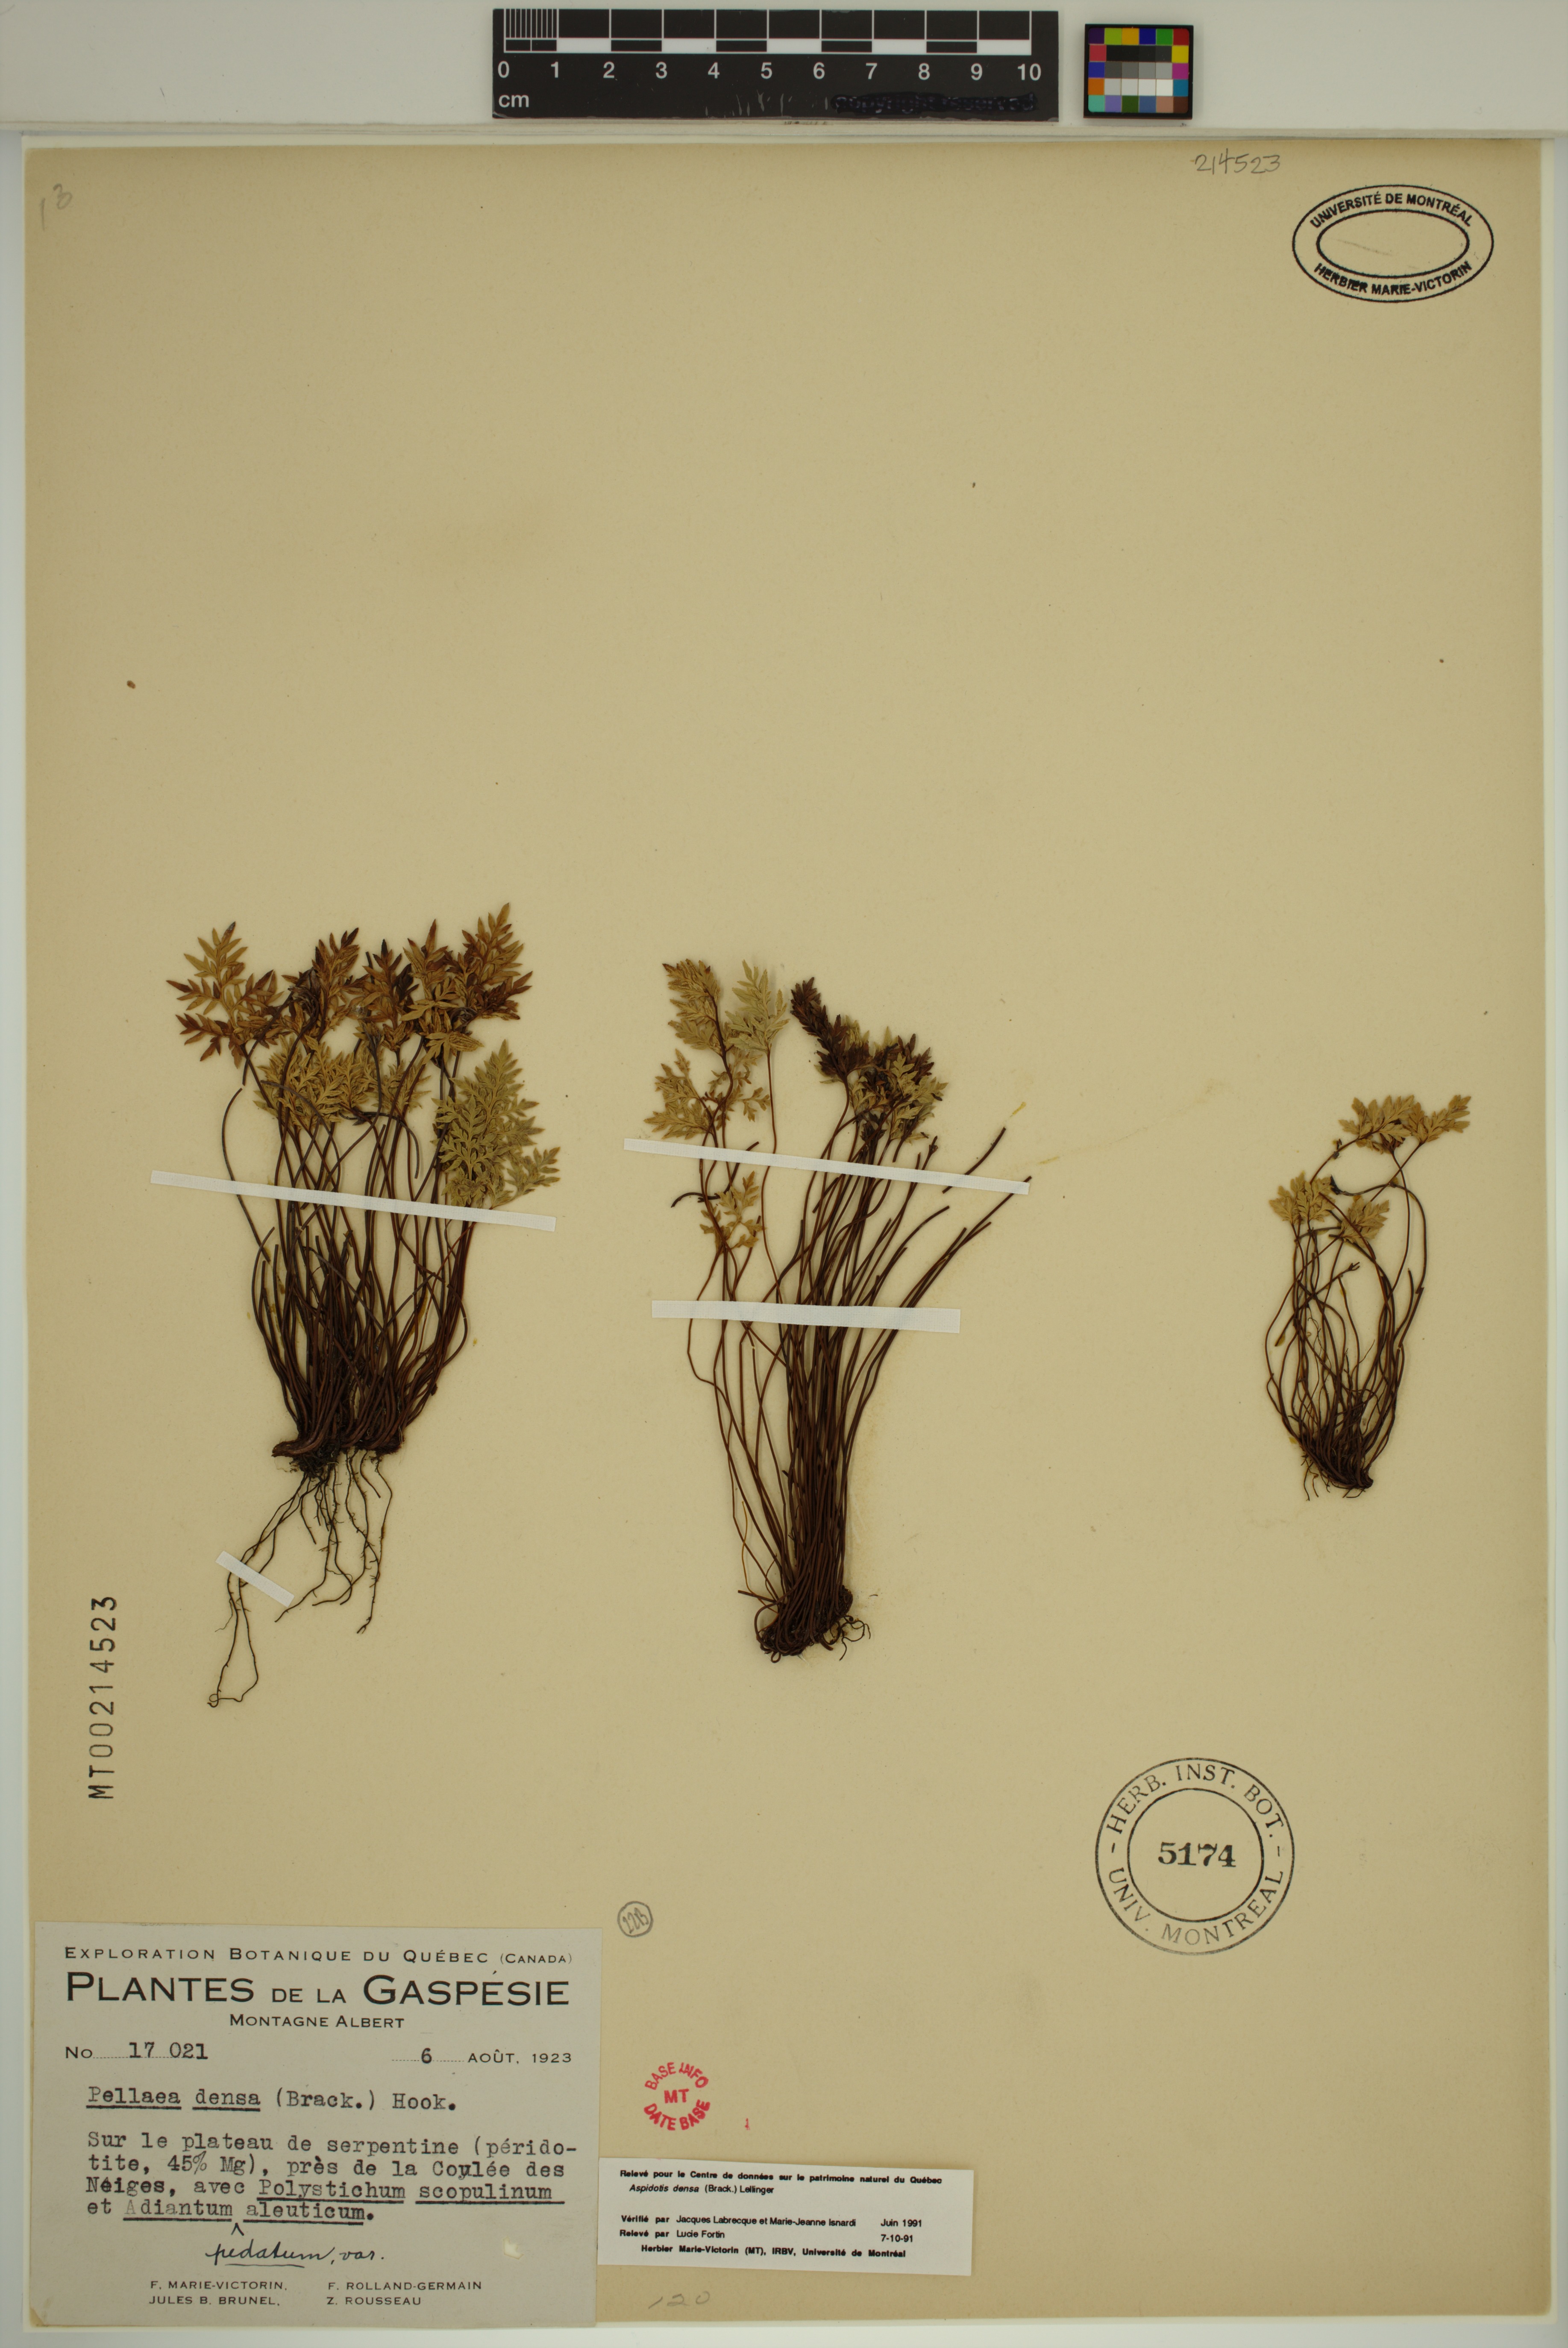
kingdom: Plantae
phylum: Tracheophyta
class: Polypodiopsida
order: Polypodiales
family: Pteridaceae
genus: Aspidotis
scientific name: Aspidotis densa
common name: Indian's dream
